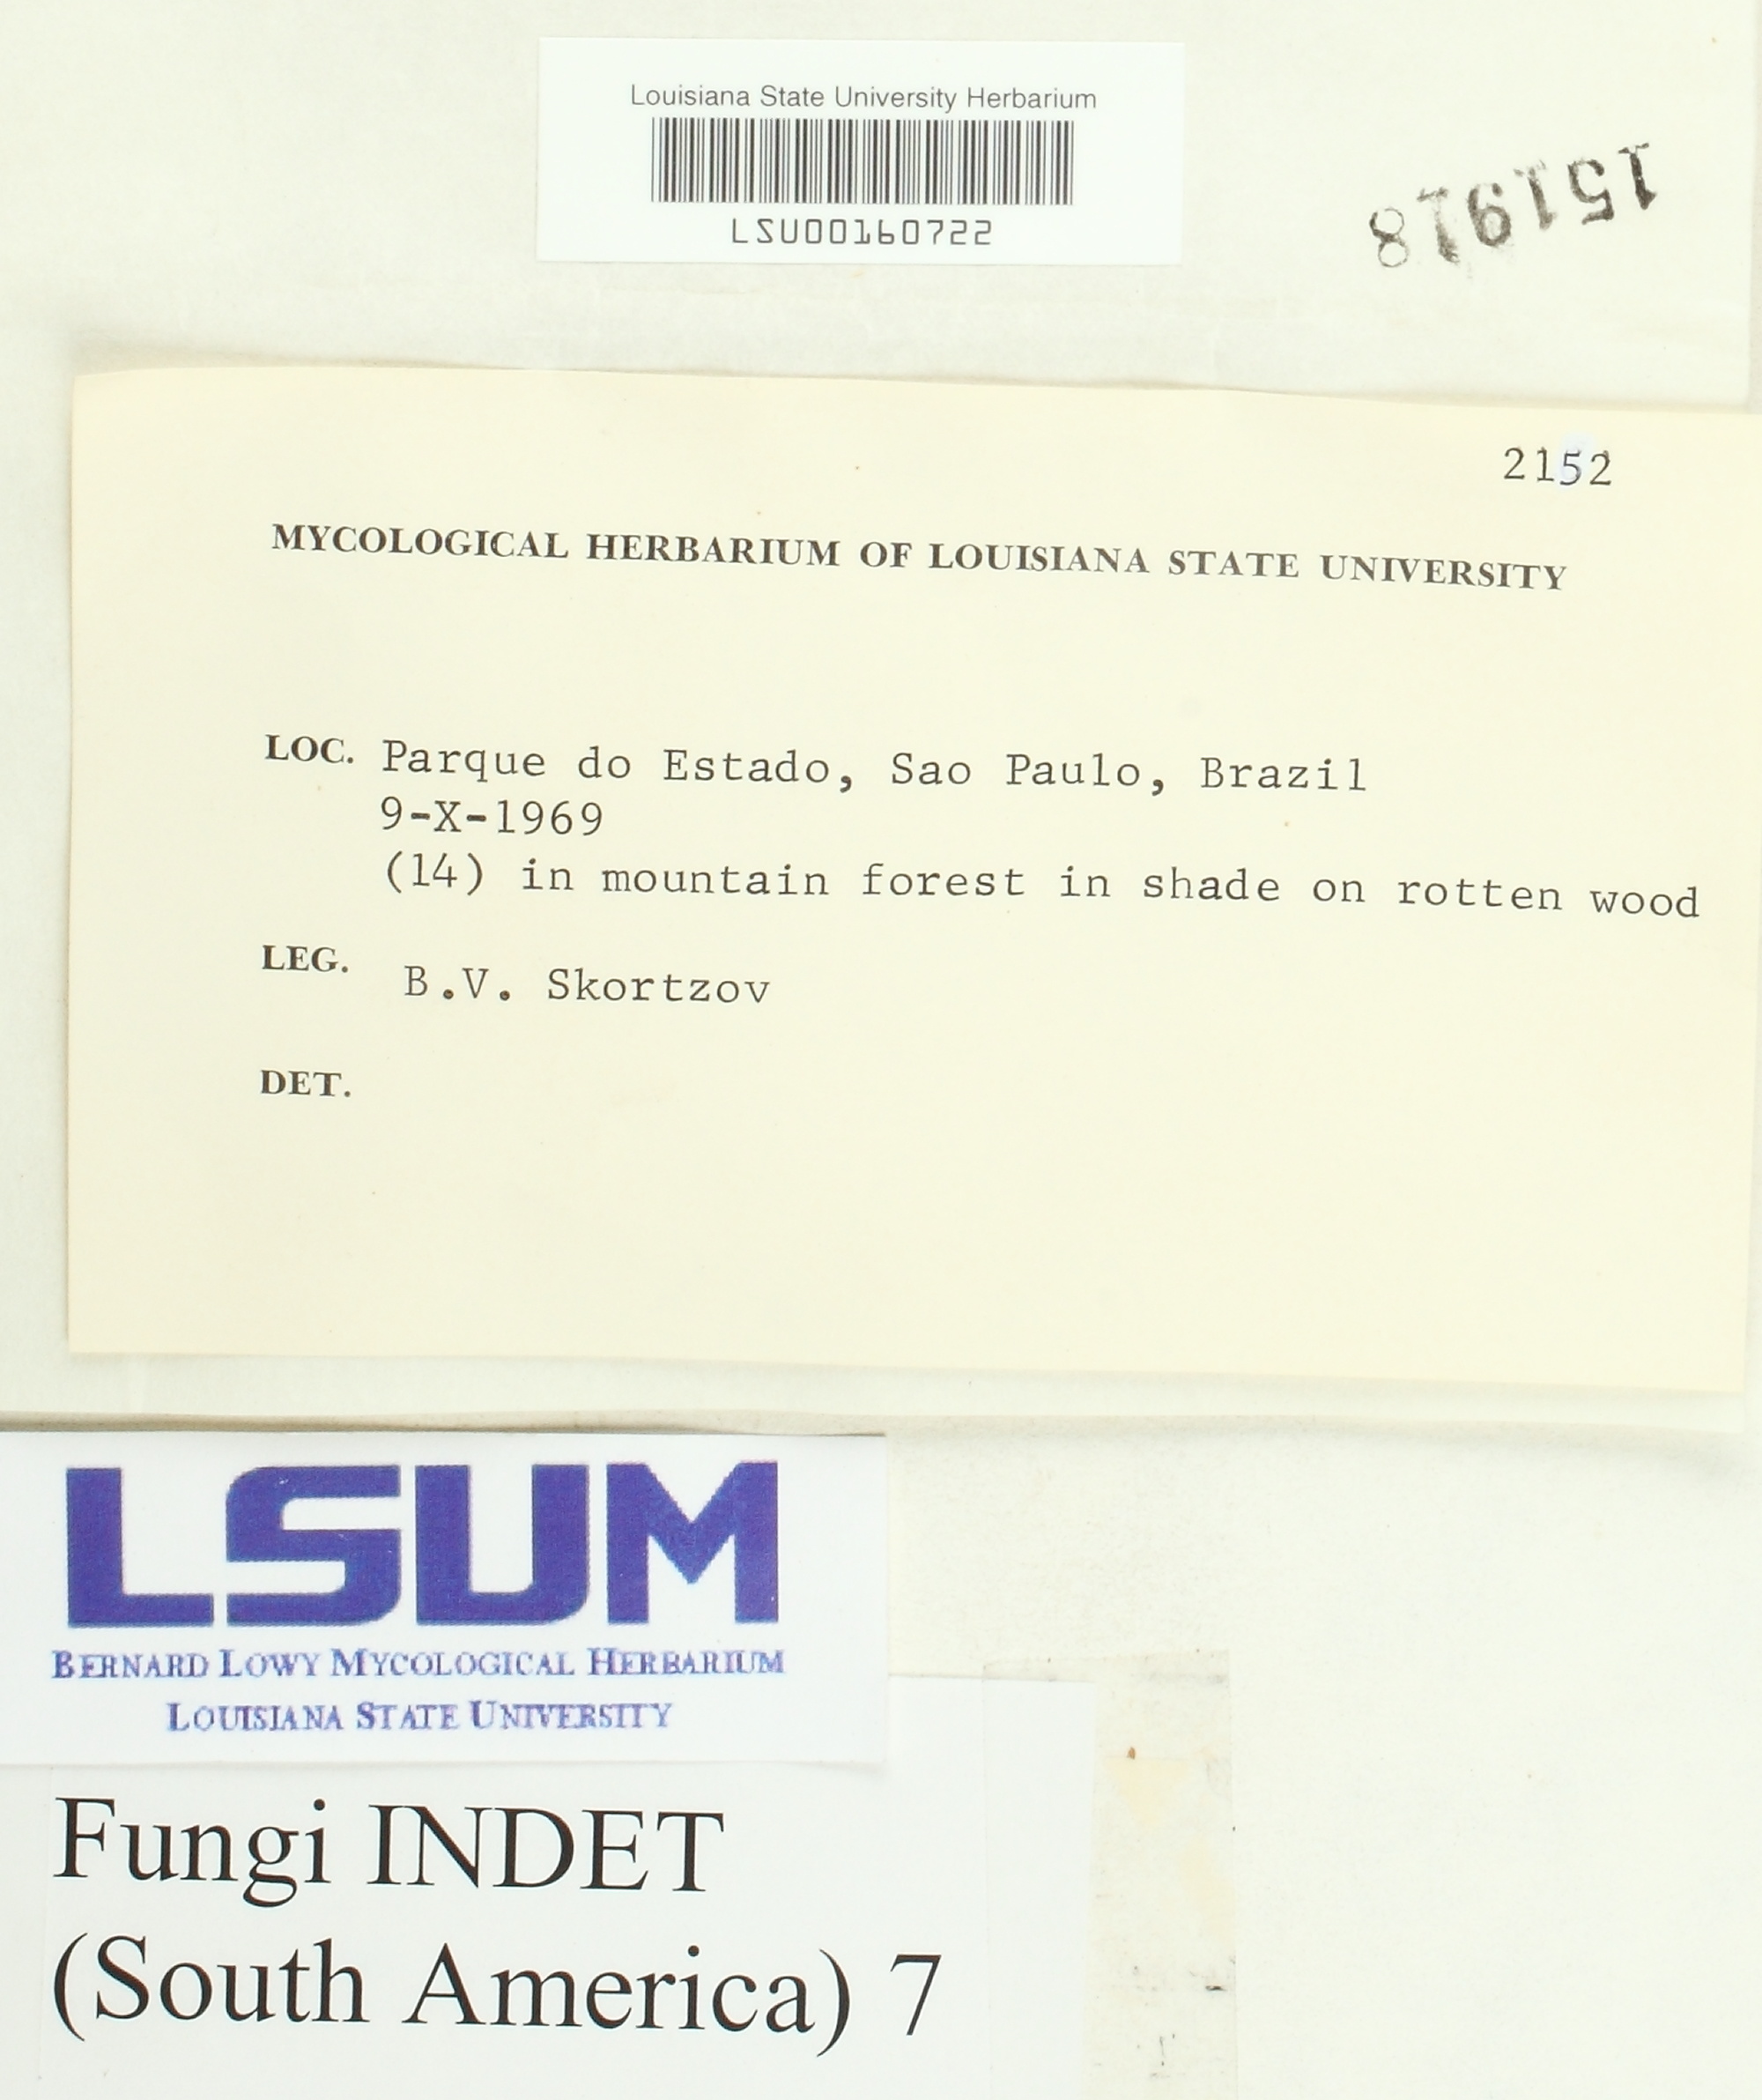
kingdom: Fungi
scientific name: Fungi
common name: Fungi
